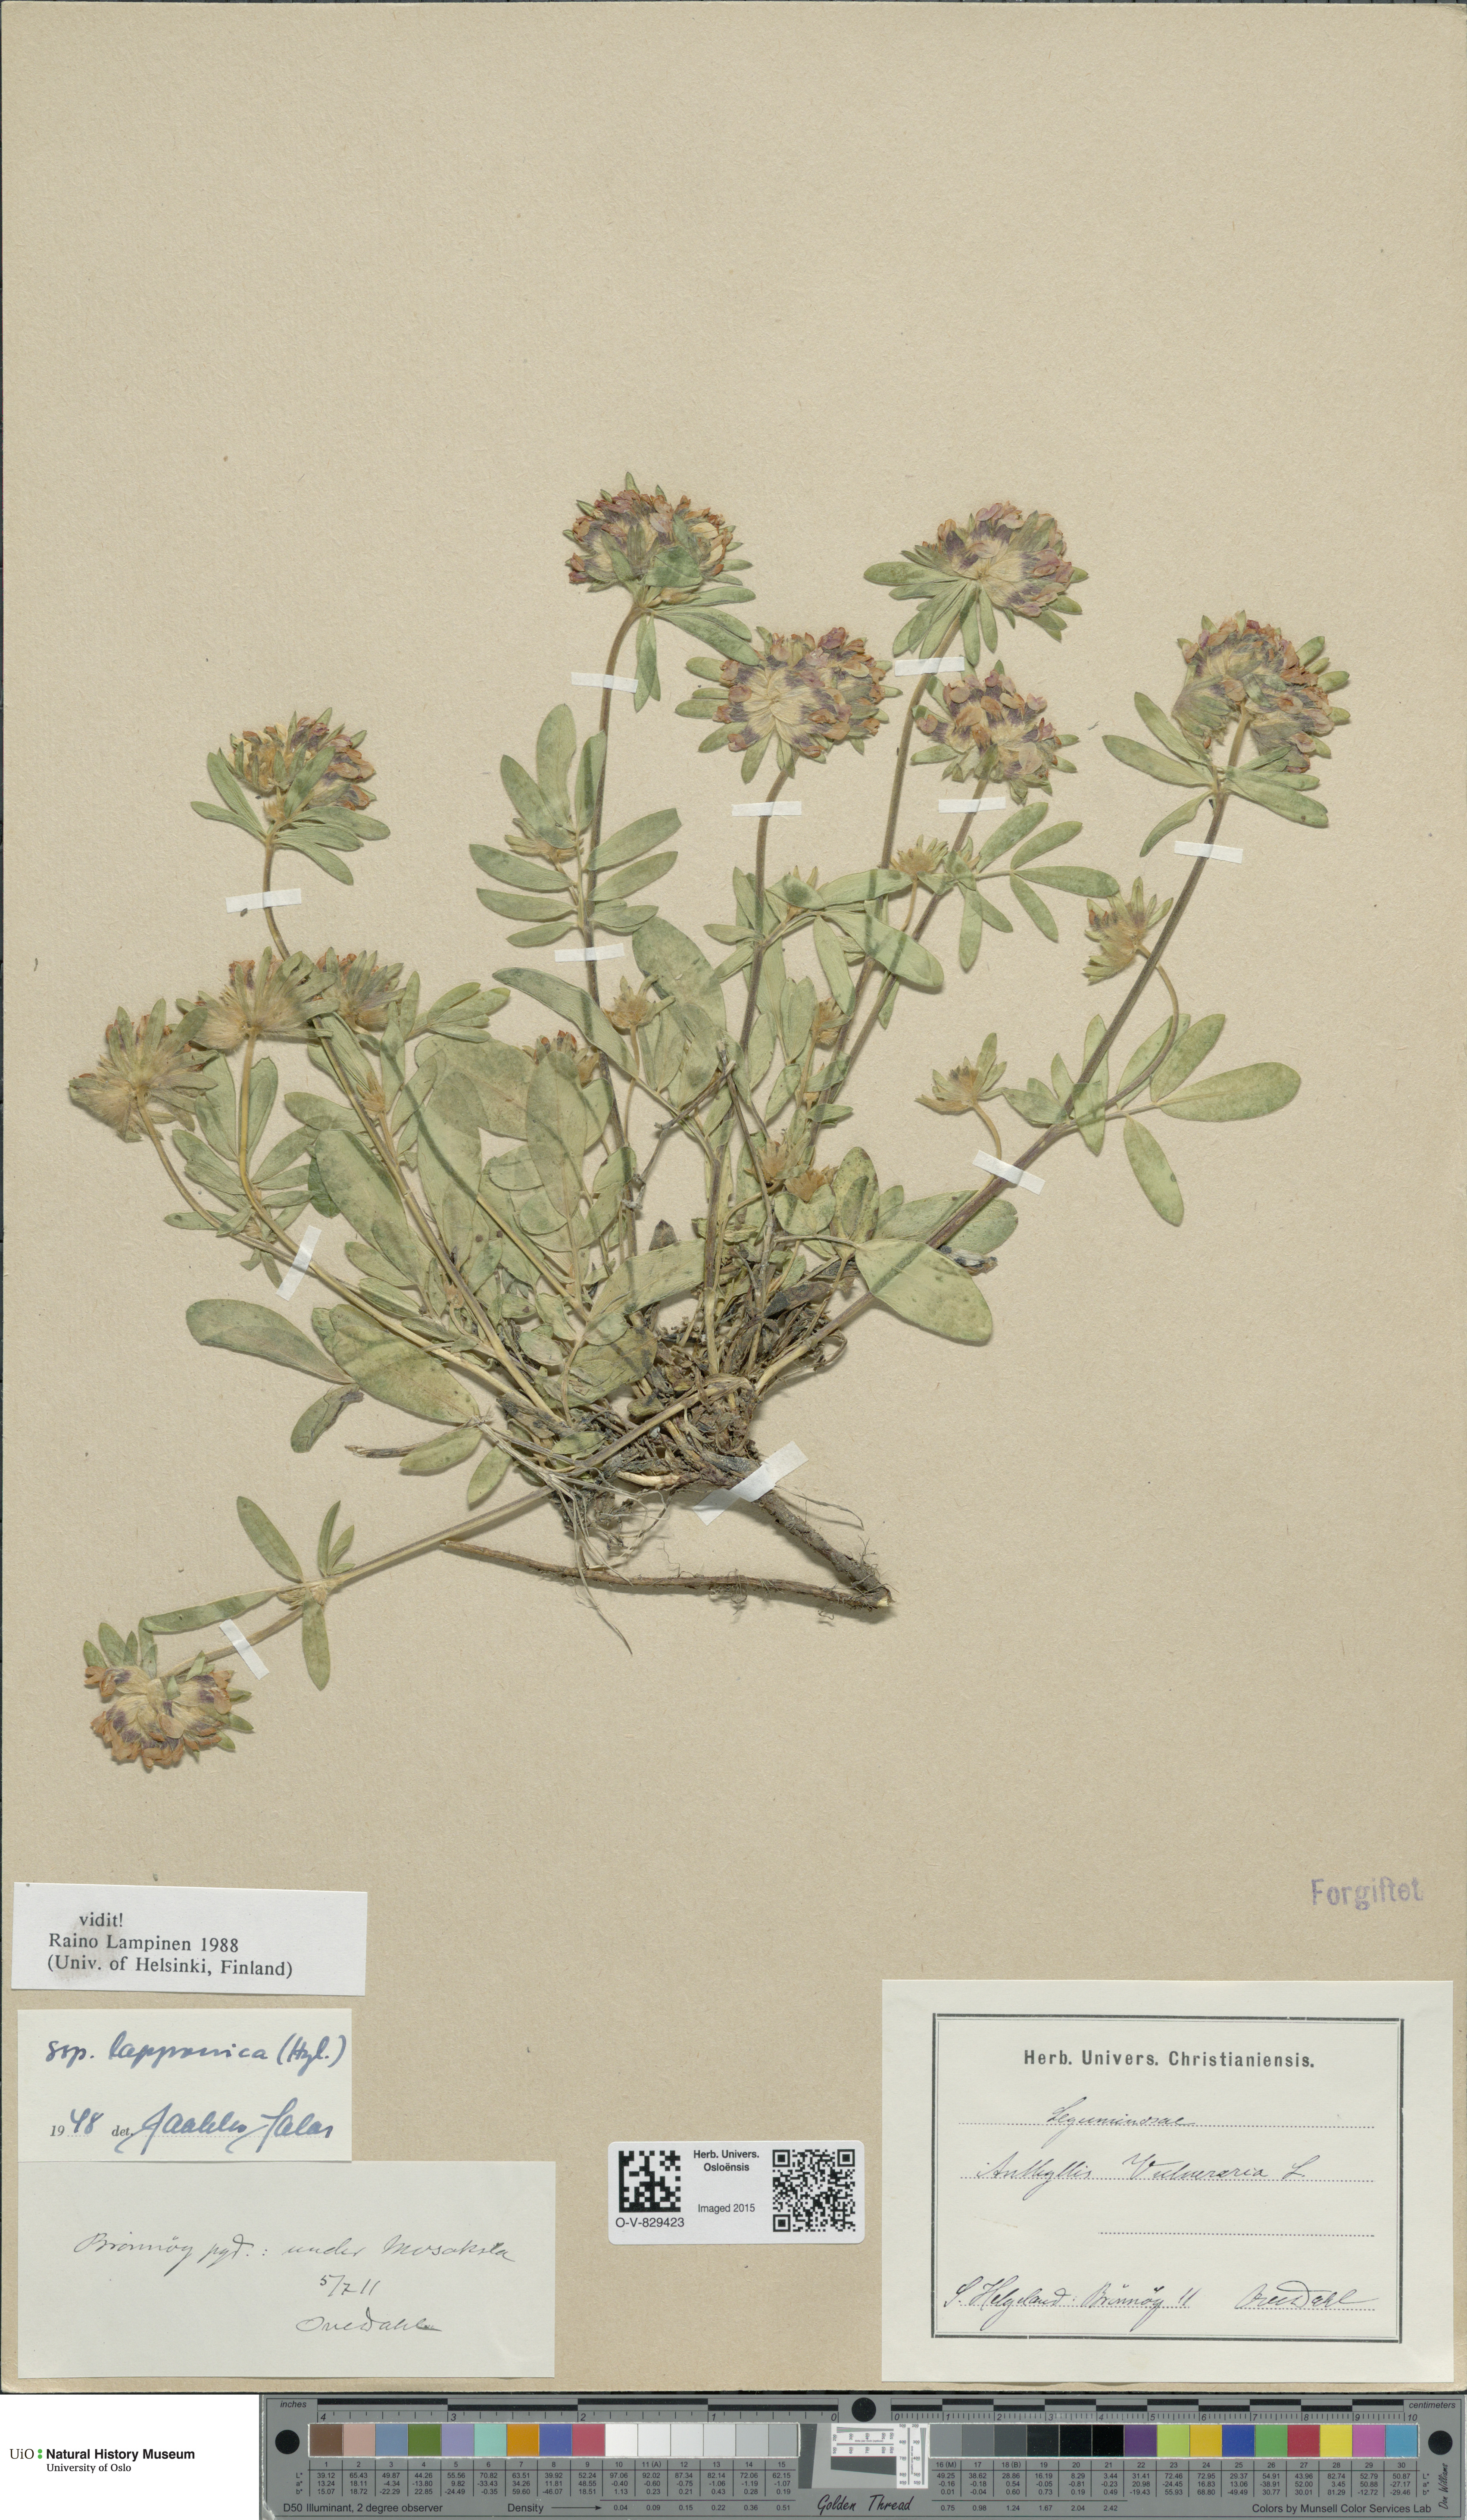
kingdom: Plantae
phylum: Tracheophyta
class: Magnoliopsida
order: Fabales
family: Fabaceae
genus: Anthyllis
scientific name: Anthyllis vulneraria
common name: Kidney vetch
